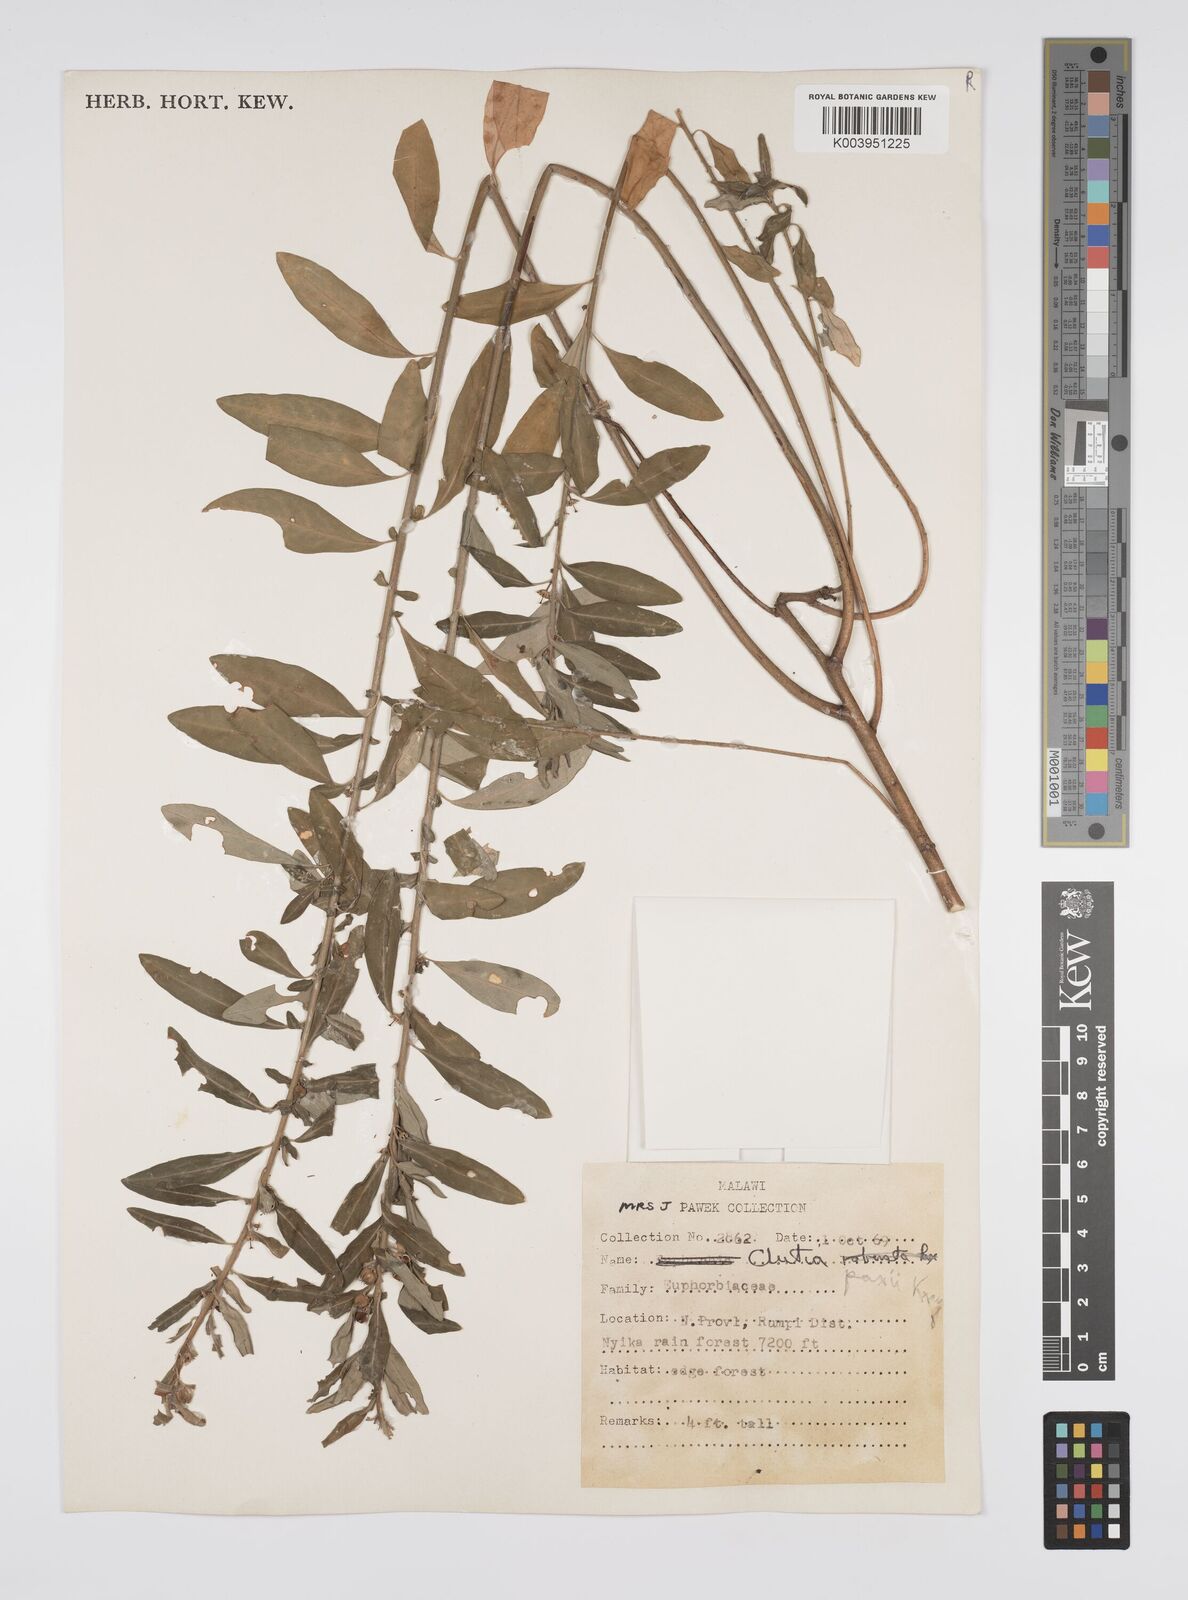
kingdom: Plantae
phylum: Tracheophyta
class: Magnoliopsida
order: Malpighiales
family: Peraceae
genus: Clutia
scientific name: Clutia paxii
